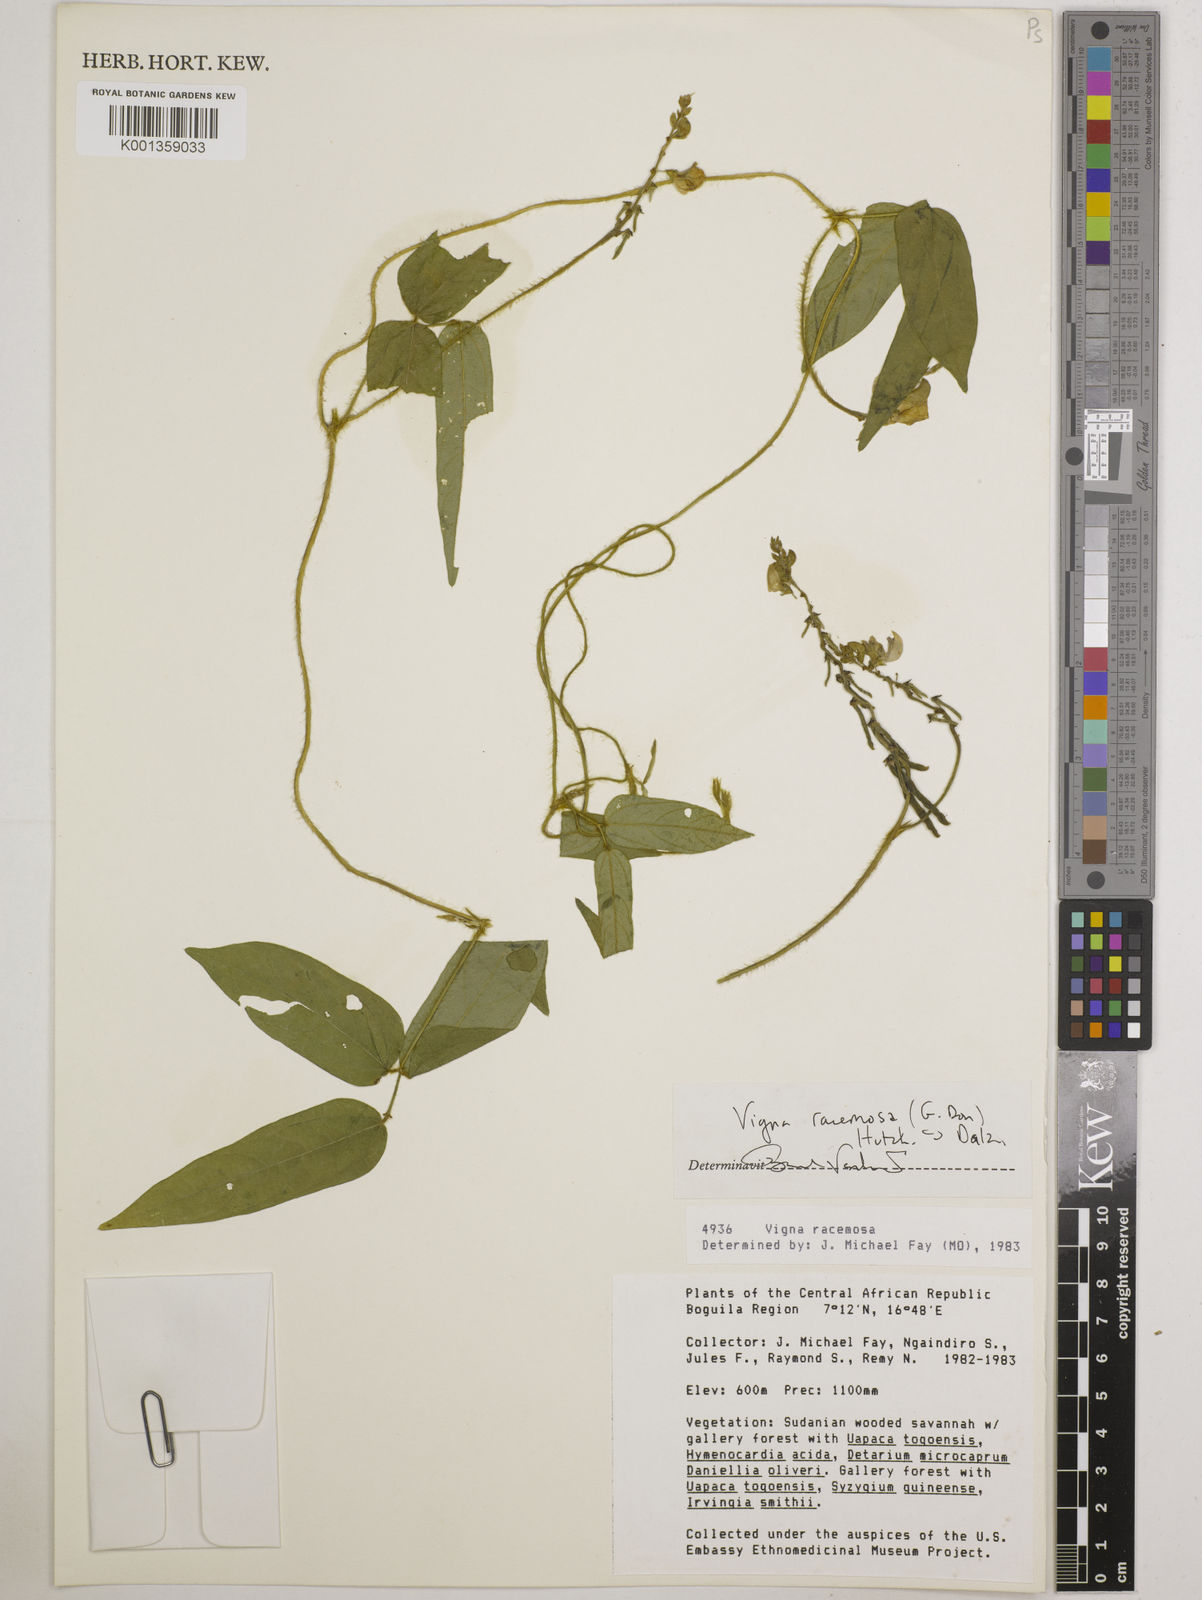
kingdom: Plantae
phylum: Tracheophyta
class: Magnoliopsida
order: Fabales
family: Fabaceae
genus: Vigna
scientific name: Vigna racemosa
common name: Beans not eaten
